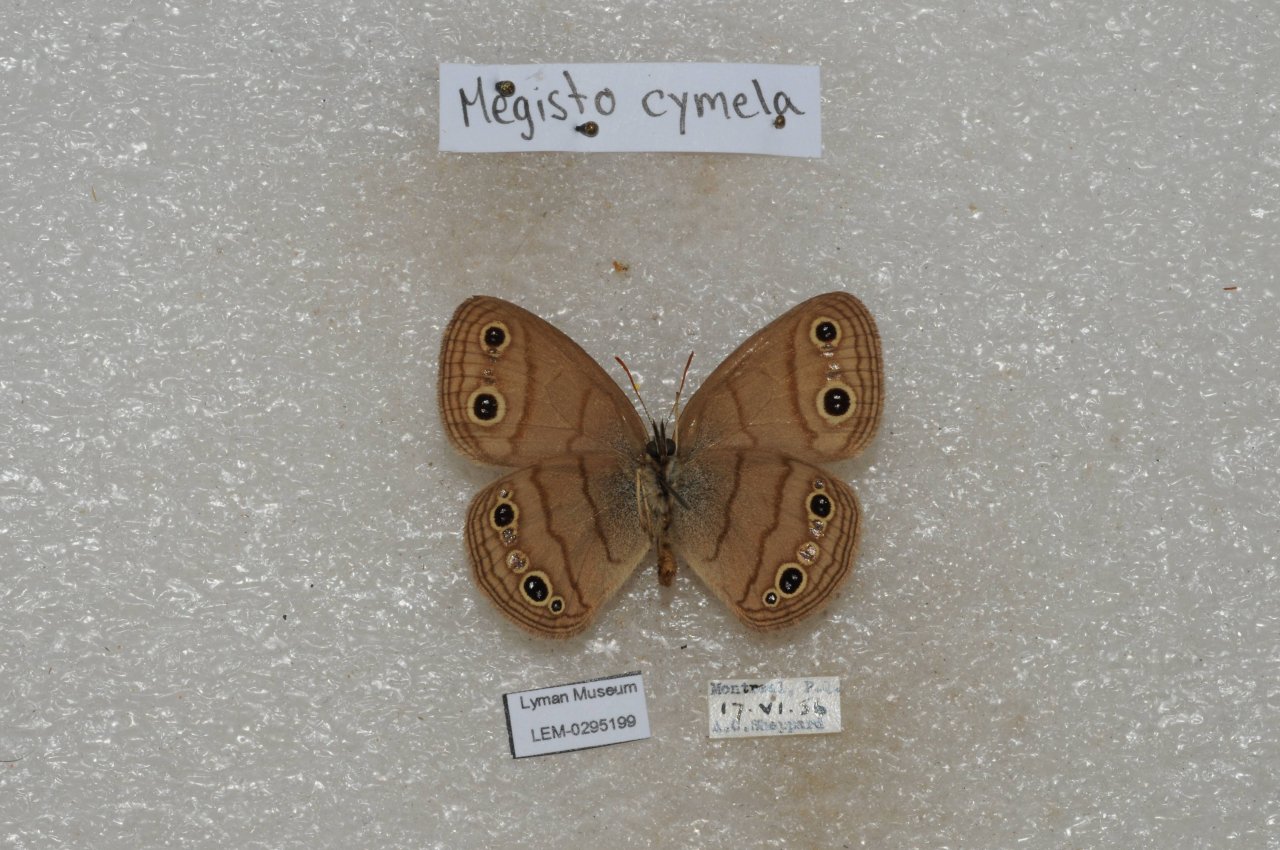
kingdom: Animalia
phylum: Arthropoda
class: Insecta
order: Lepidoptera
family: Nymphalidae
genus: Euptychia
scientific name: Euptychia cymela
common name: Little Wood Satyr
